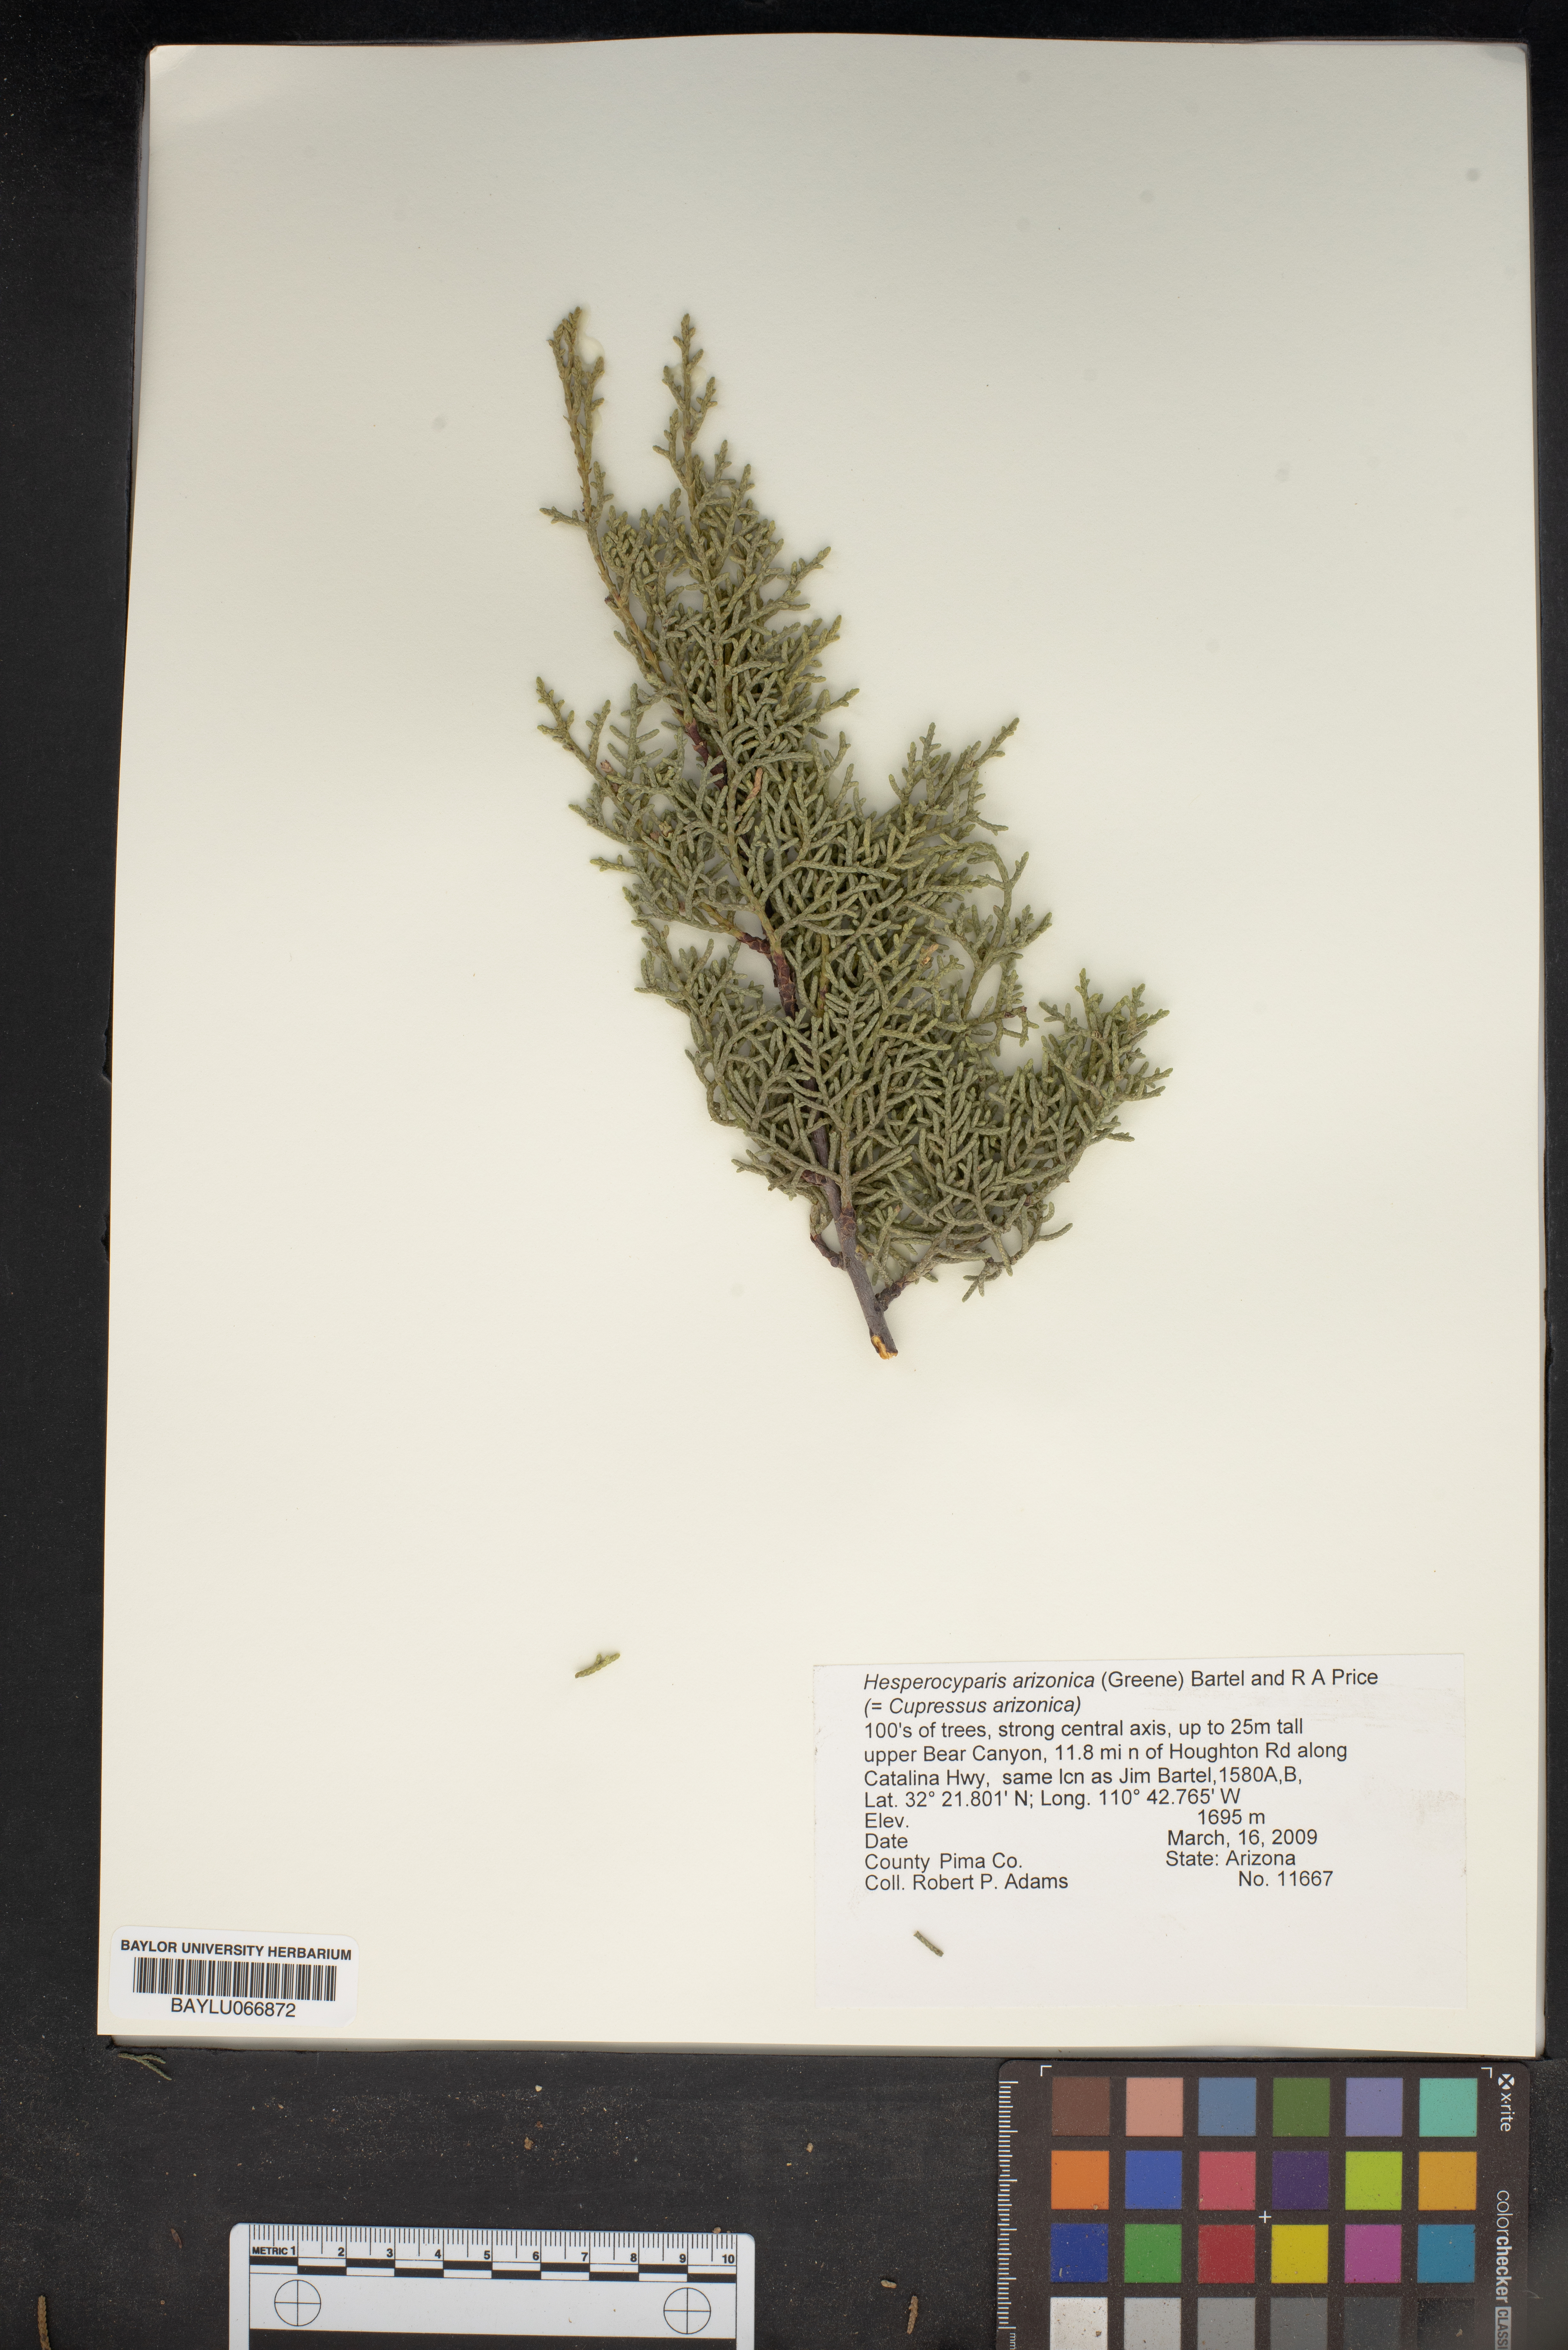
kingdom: Plantae
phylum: Tracheophyta
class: Pinopsida
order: Pinales
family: Cupressaceae
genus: Cupressus
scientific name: Cupressus arizonica
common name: Arizona cypress
